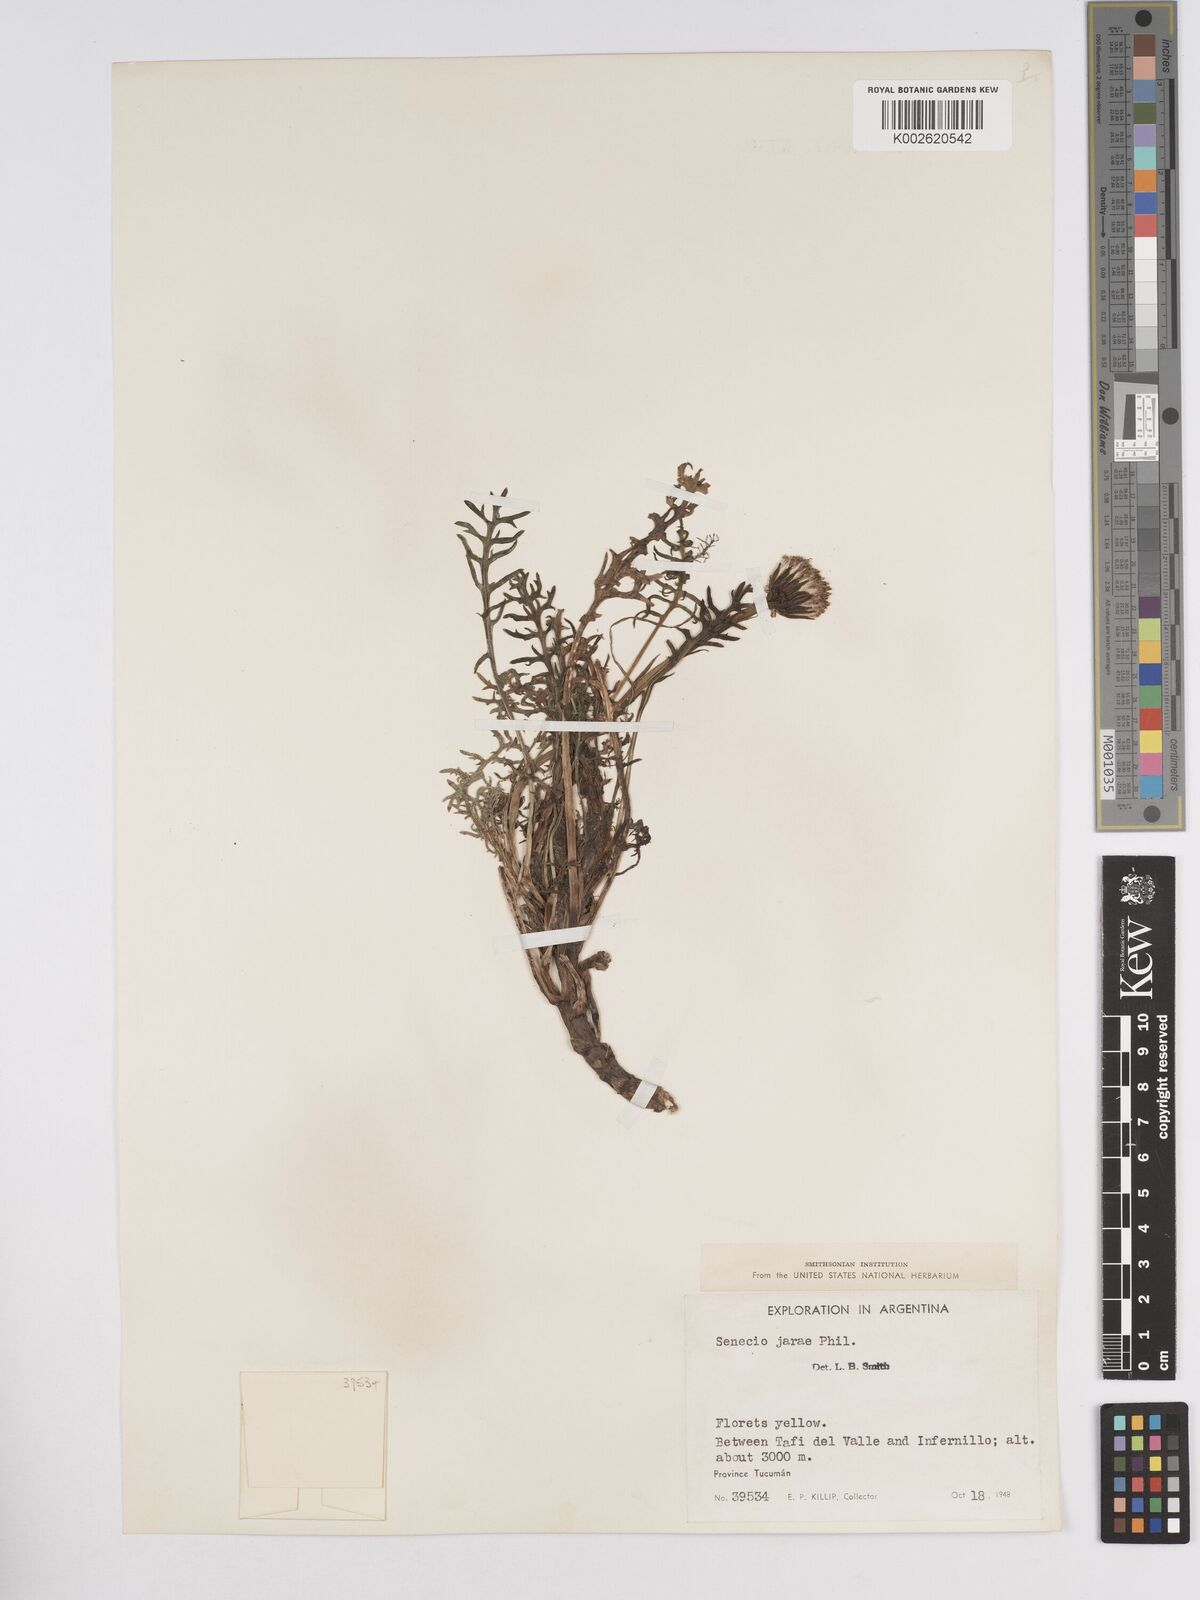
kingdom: Plantae
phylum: Tracheophyta
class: Magnoliopsida
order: Asterales
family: Asteraceae
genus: Senecio
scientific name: Senecio jarae
